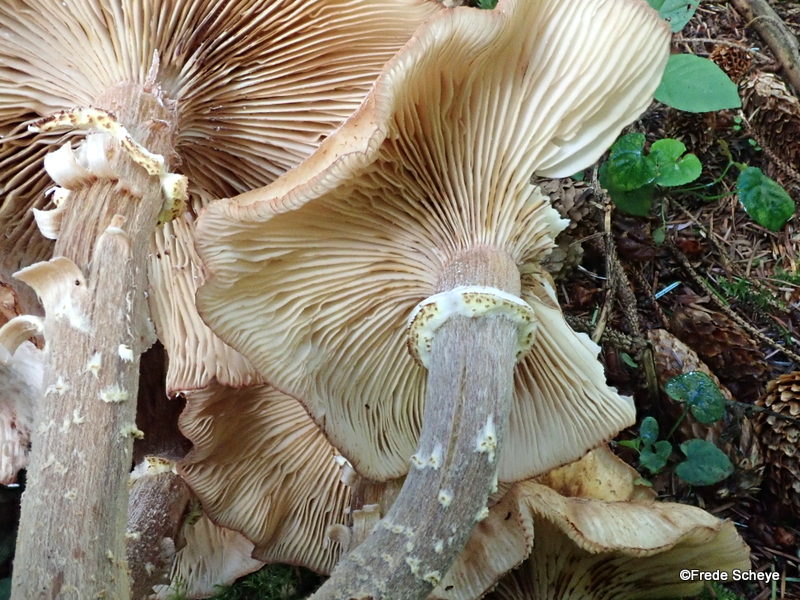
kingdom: Fungi
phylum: Basidiomycota
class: Agaricomycetes
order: Agaricales
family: Physalacriaceae
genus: Armillaria
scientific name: Armillaria ostoyae
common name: mørk honningsvamp
